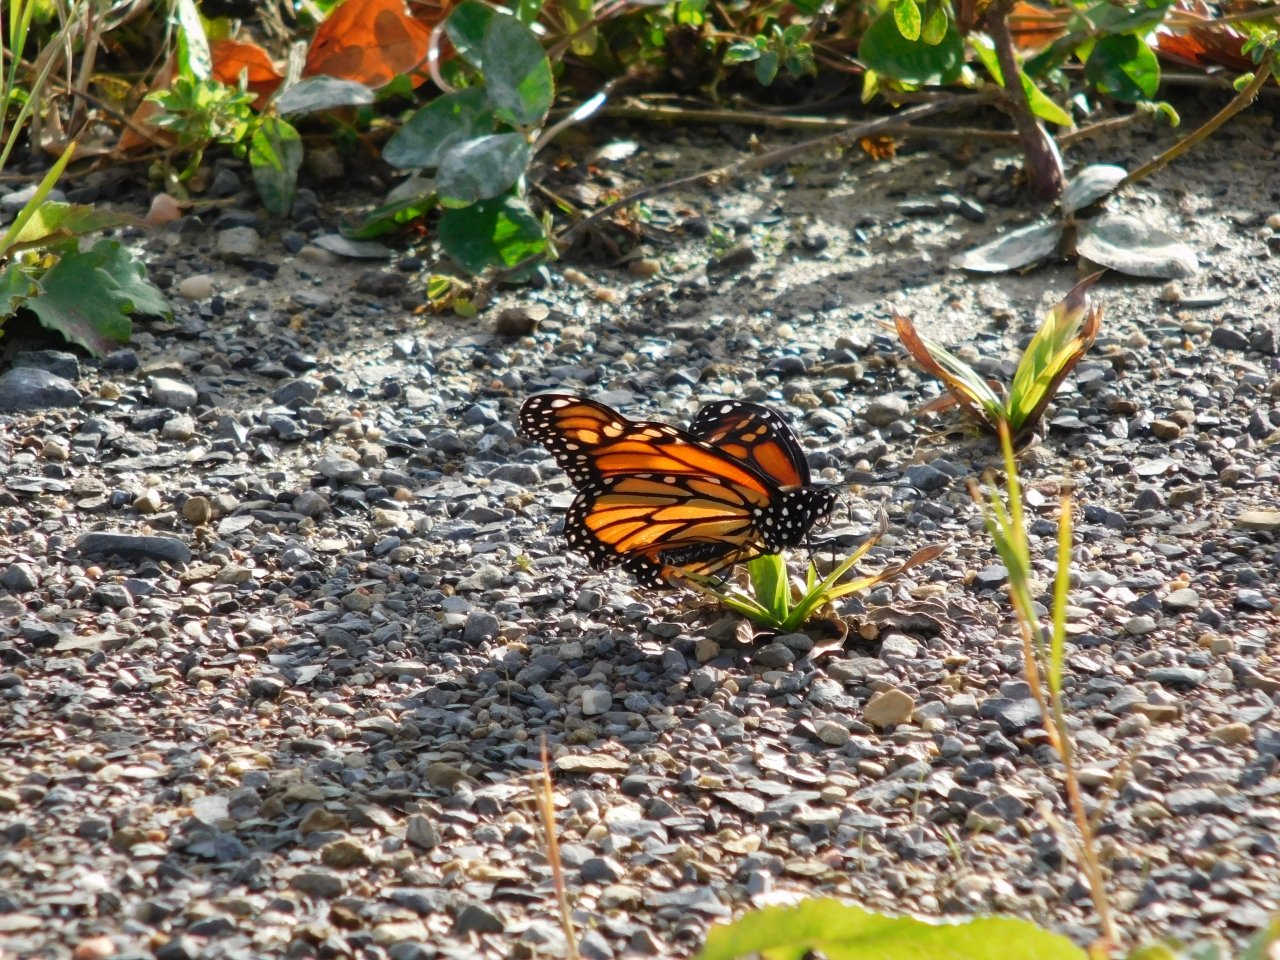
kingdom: Animalia
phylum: Arthropoda
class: Insecta
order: Lepidoptera
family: Nymphalidae
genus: Danaus
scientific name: Danaus plexippus
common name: Monarch
